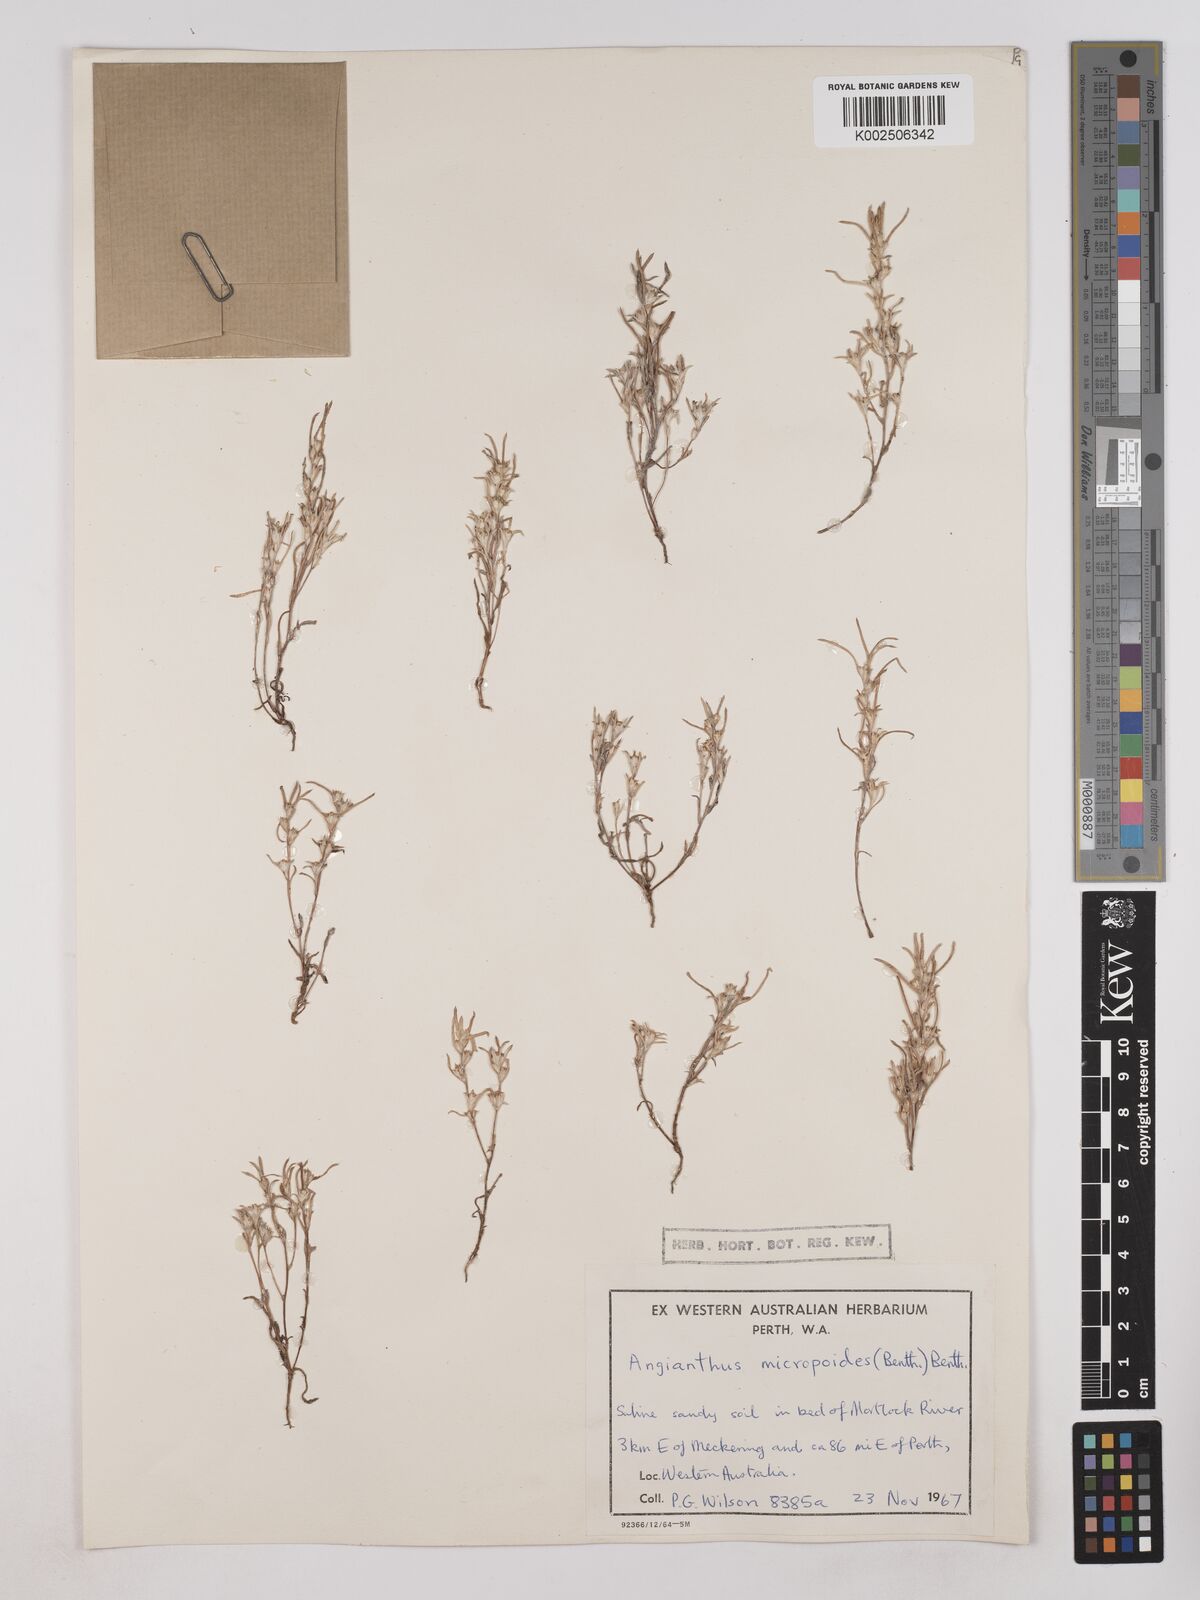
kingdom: Plantae
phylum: Tracheophyta
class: Magnoliopsida
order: Asterales
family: Asteraceae
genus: Angianthus
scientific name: Angianthus micropodioides
